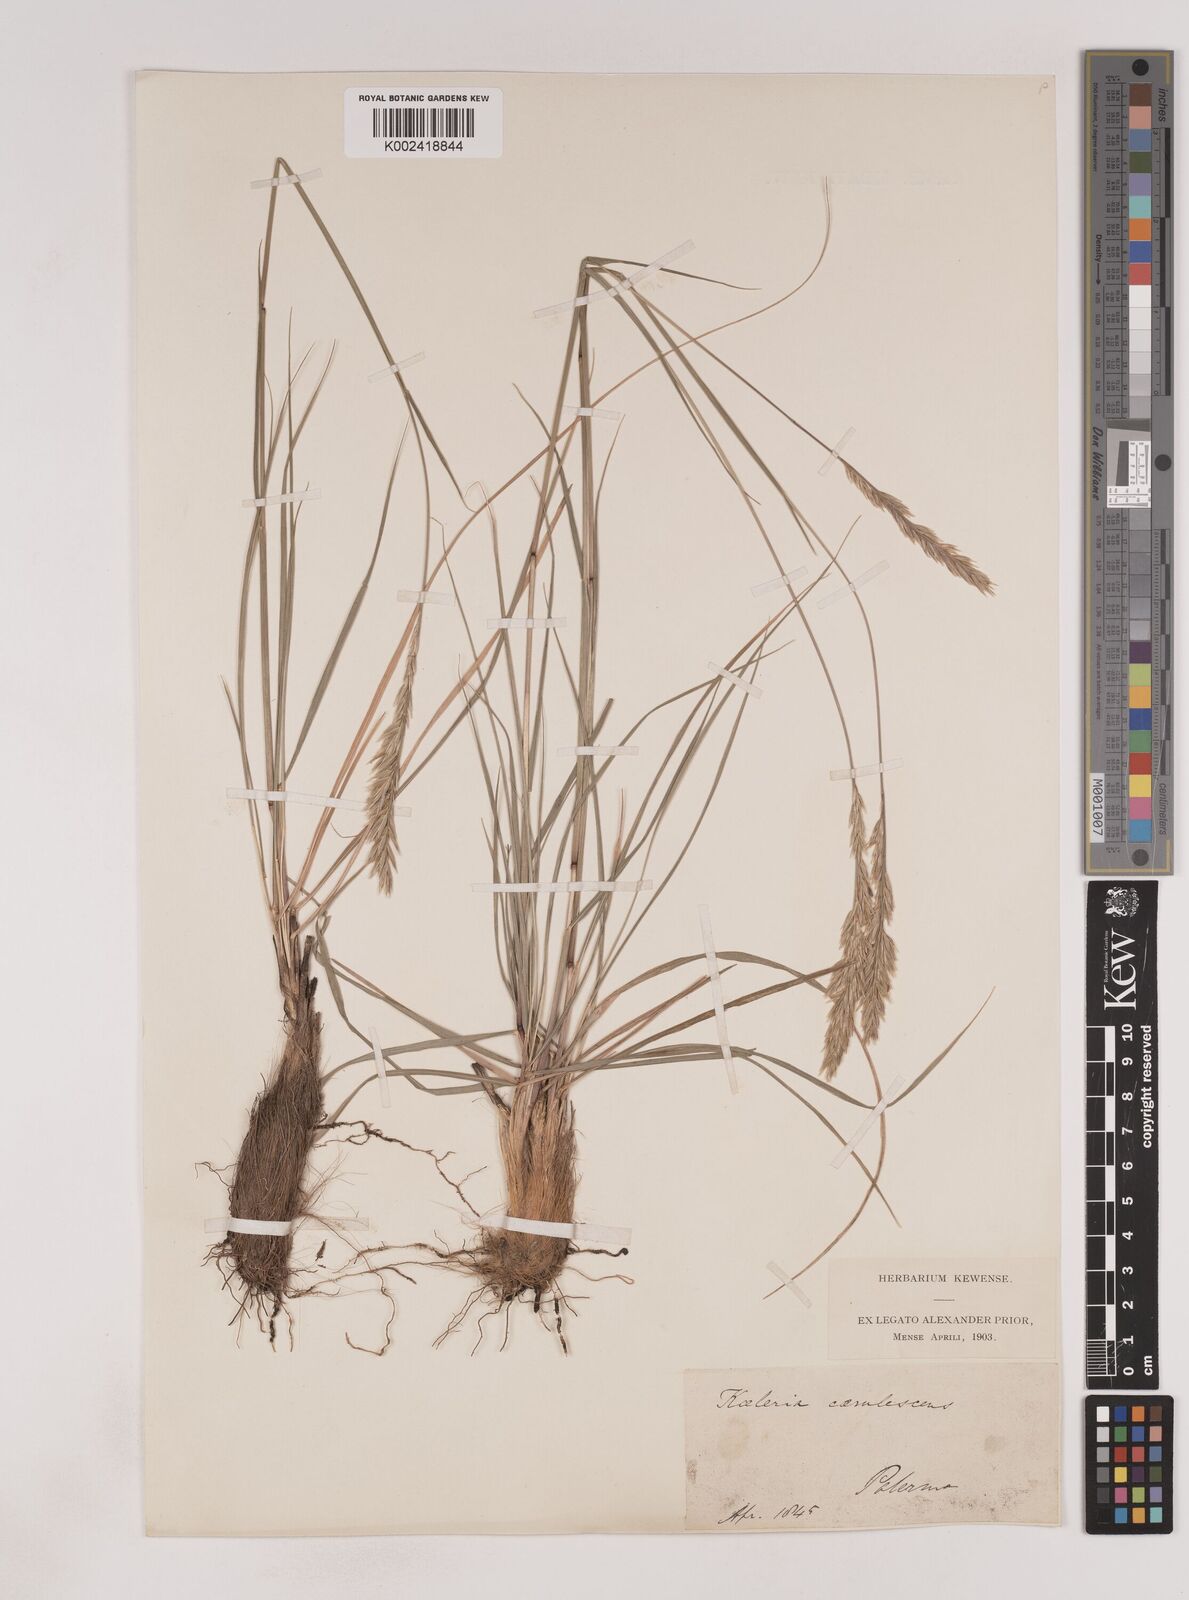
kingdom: Plantae
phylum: Tracheophyta
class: Liliopsida
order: Poales
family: Poaceae
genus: Patzkea
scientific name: Patzkea paniculata
